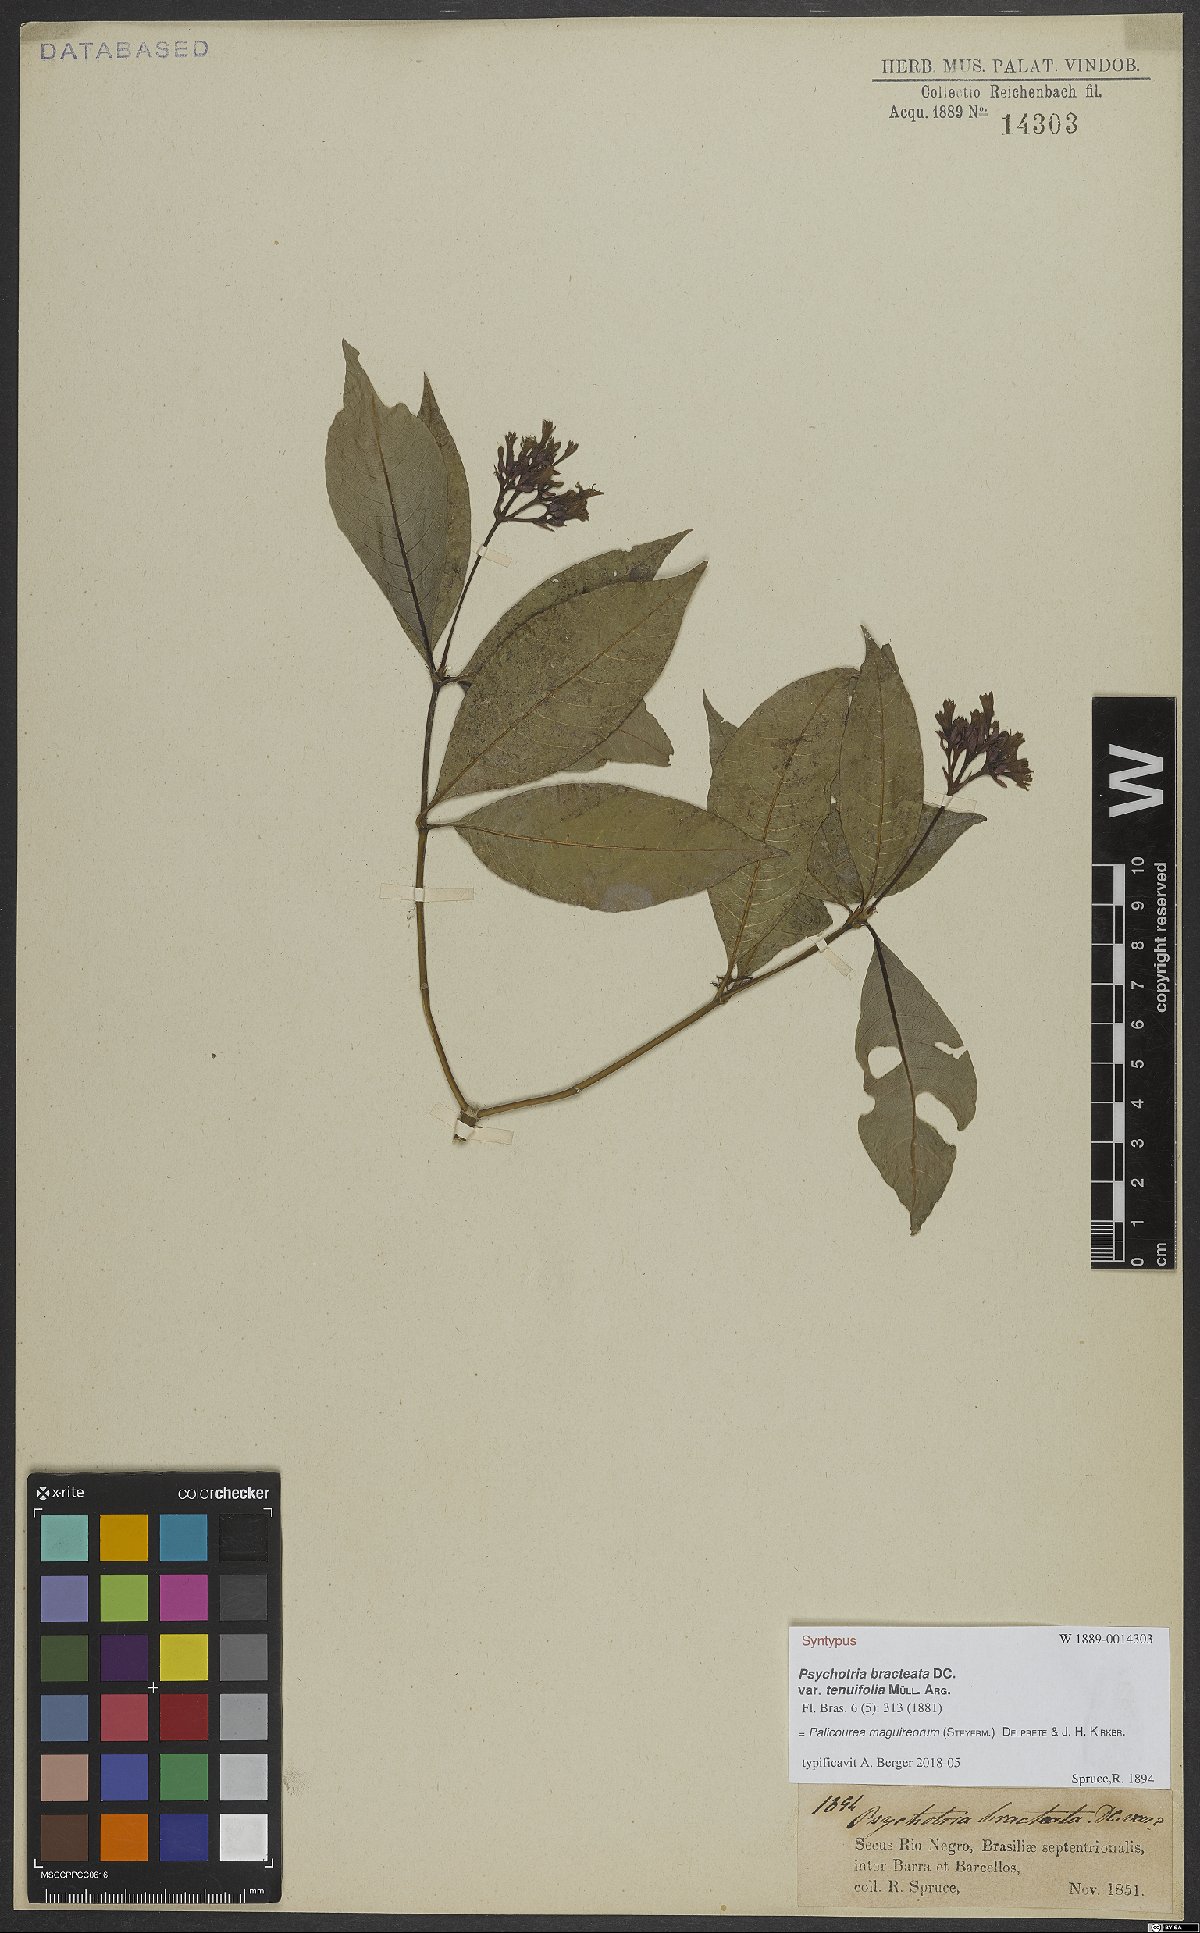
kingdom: Plantae
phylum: Tracheophyta
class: Magnoliopsida
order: Gentianales
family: Rubiaceae
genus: Palicourea
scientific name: Palicourea maguireorum
